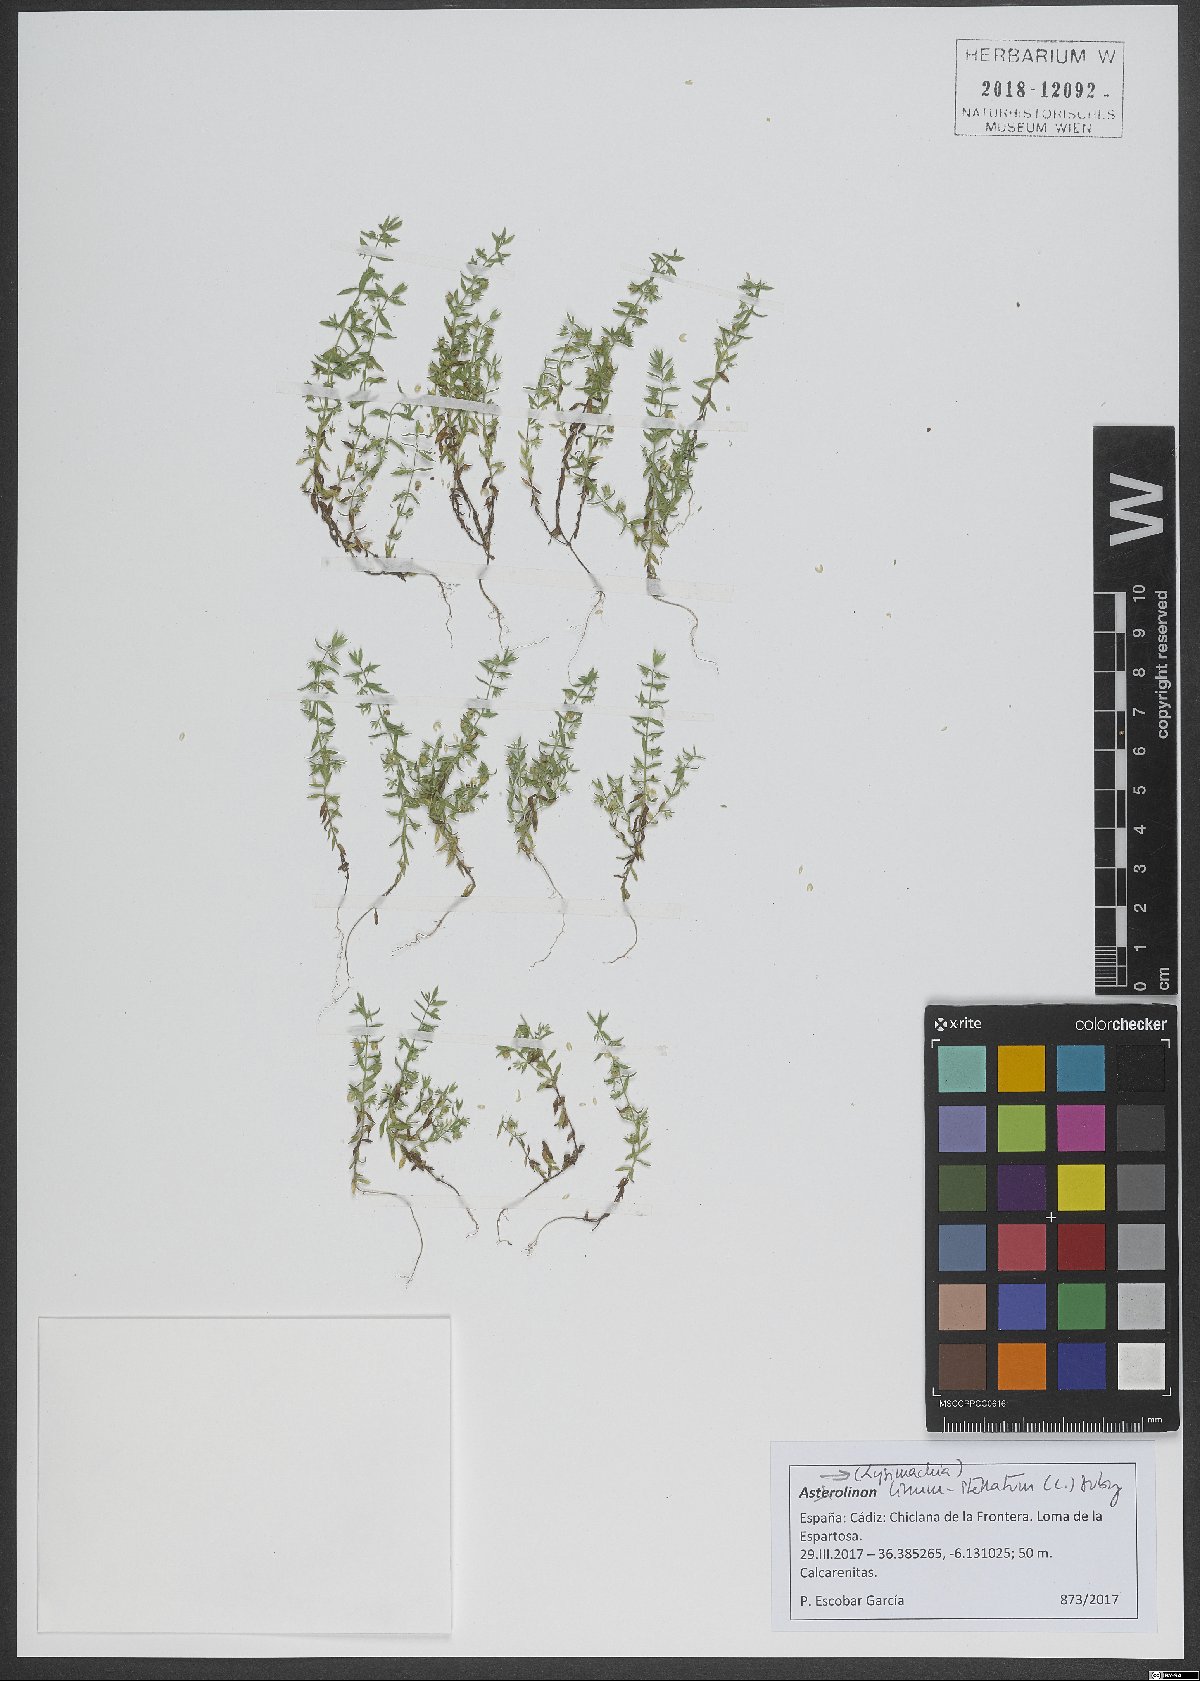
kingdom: Plantae
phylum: Tracheophyta
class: Magnoliopsida
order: Ericales
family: Primulaceae
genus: Lysimachia
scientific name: Lysimachia linum-stellatum
